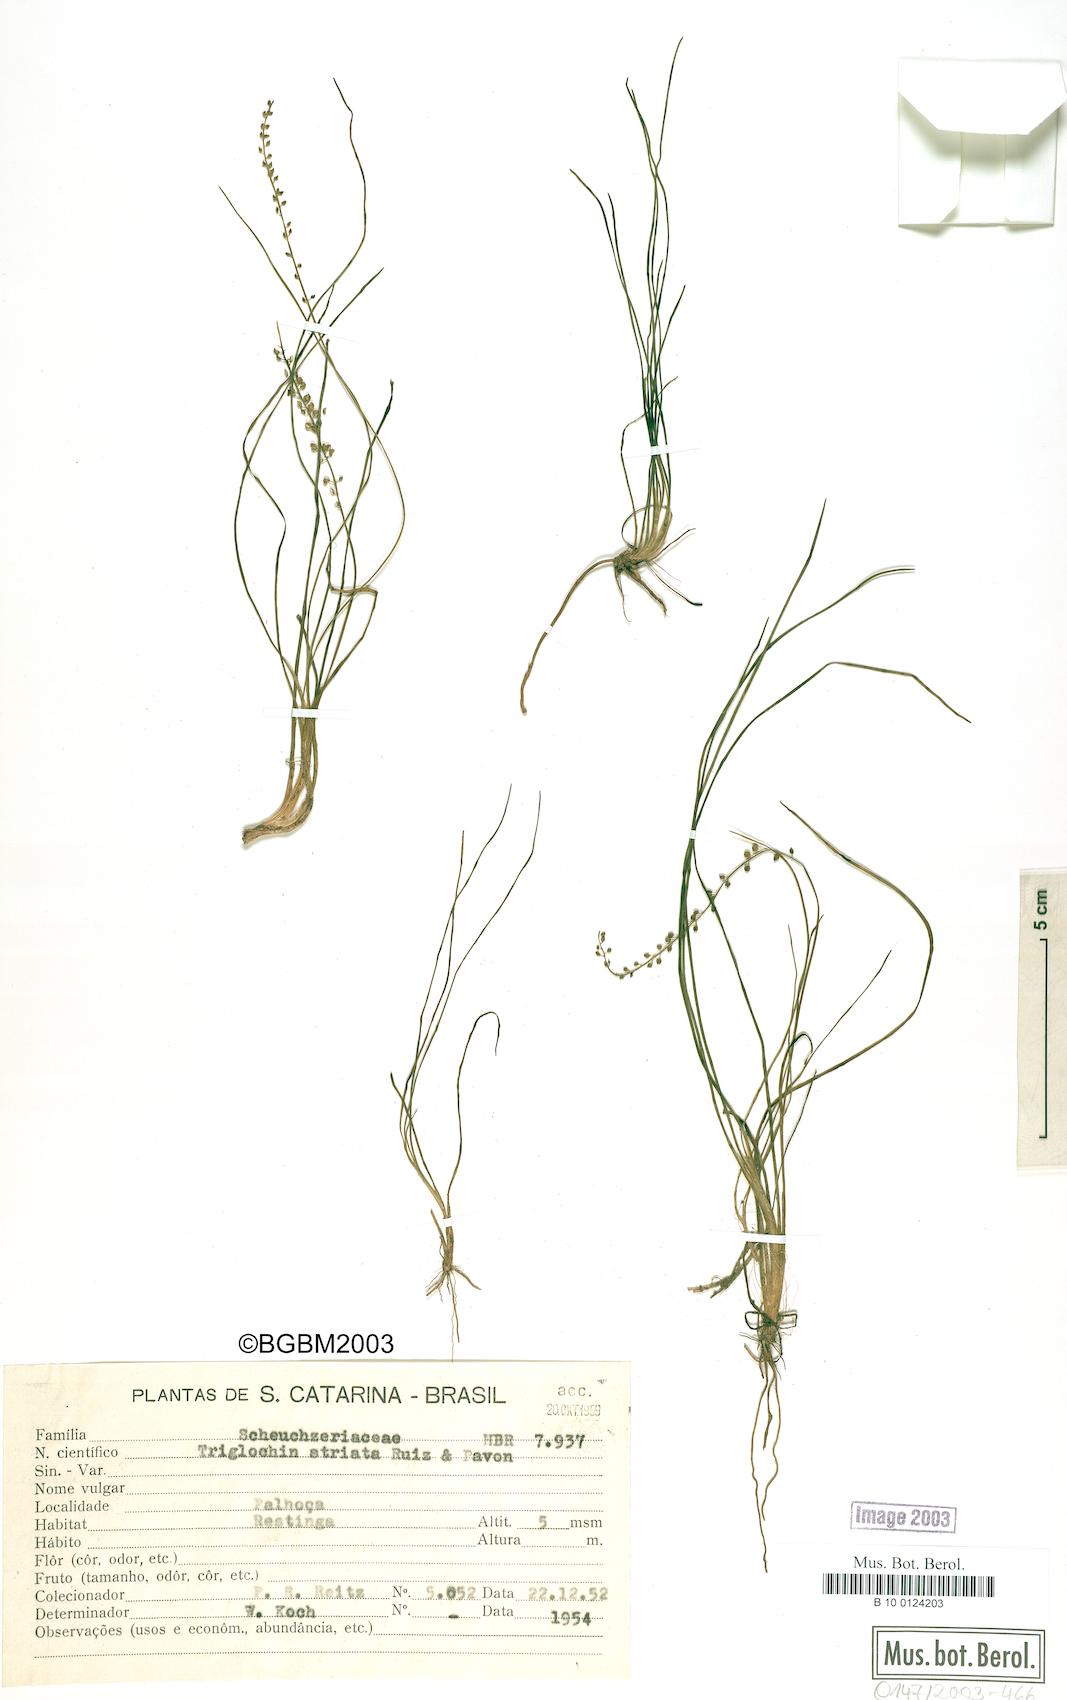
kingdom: Plantae
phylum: Tracheophyta
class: Liliopsida
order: Alismatales
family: Juncaginaceae
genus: Triglochin
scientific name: Triglochin striata
